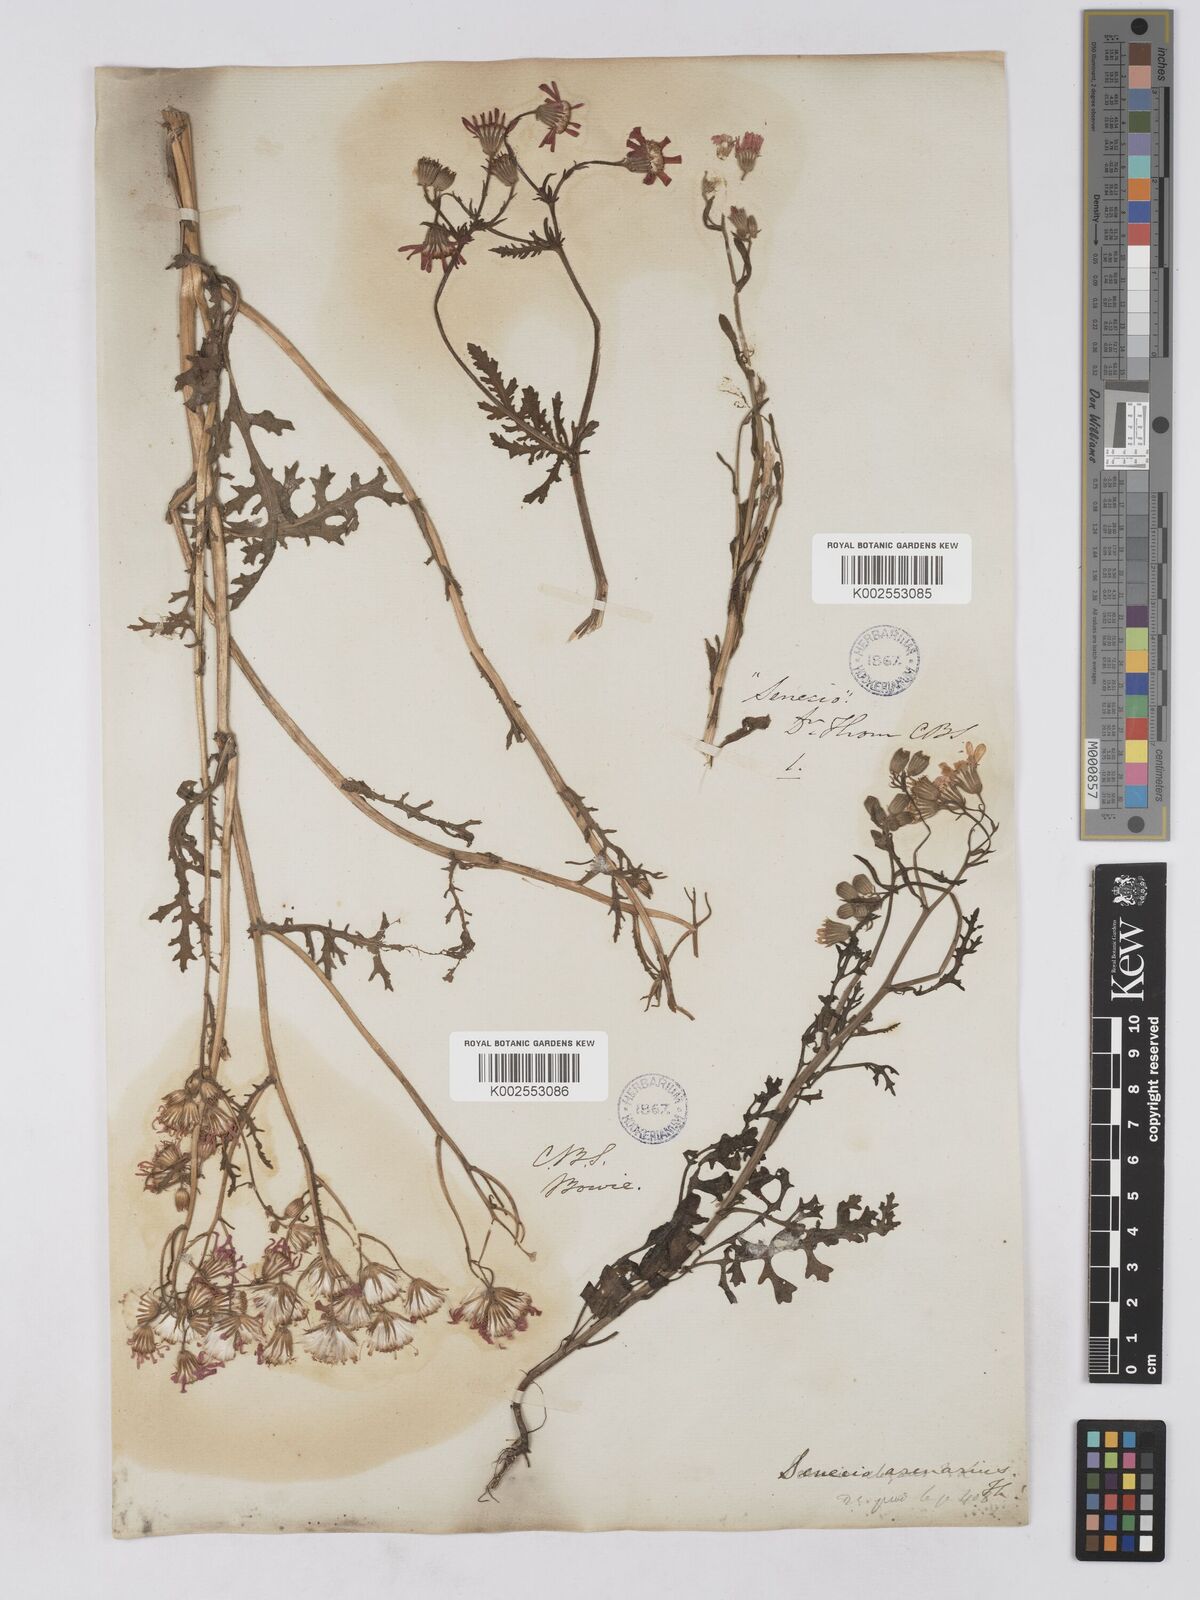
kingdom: Plantae
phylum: Tracheophyta
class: Magnoliopsida
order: Asterales
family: Asteraceae
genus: Senecio
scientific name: Senecio arenarius
